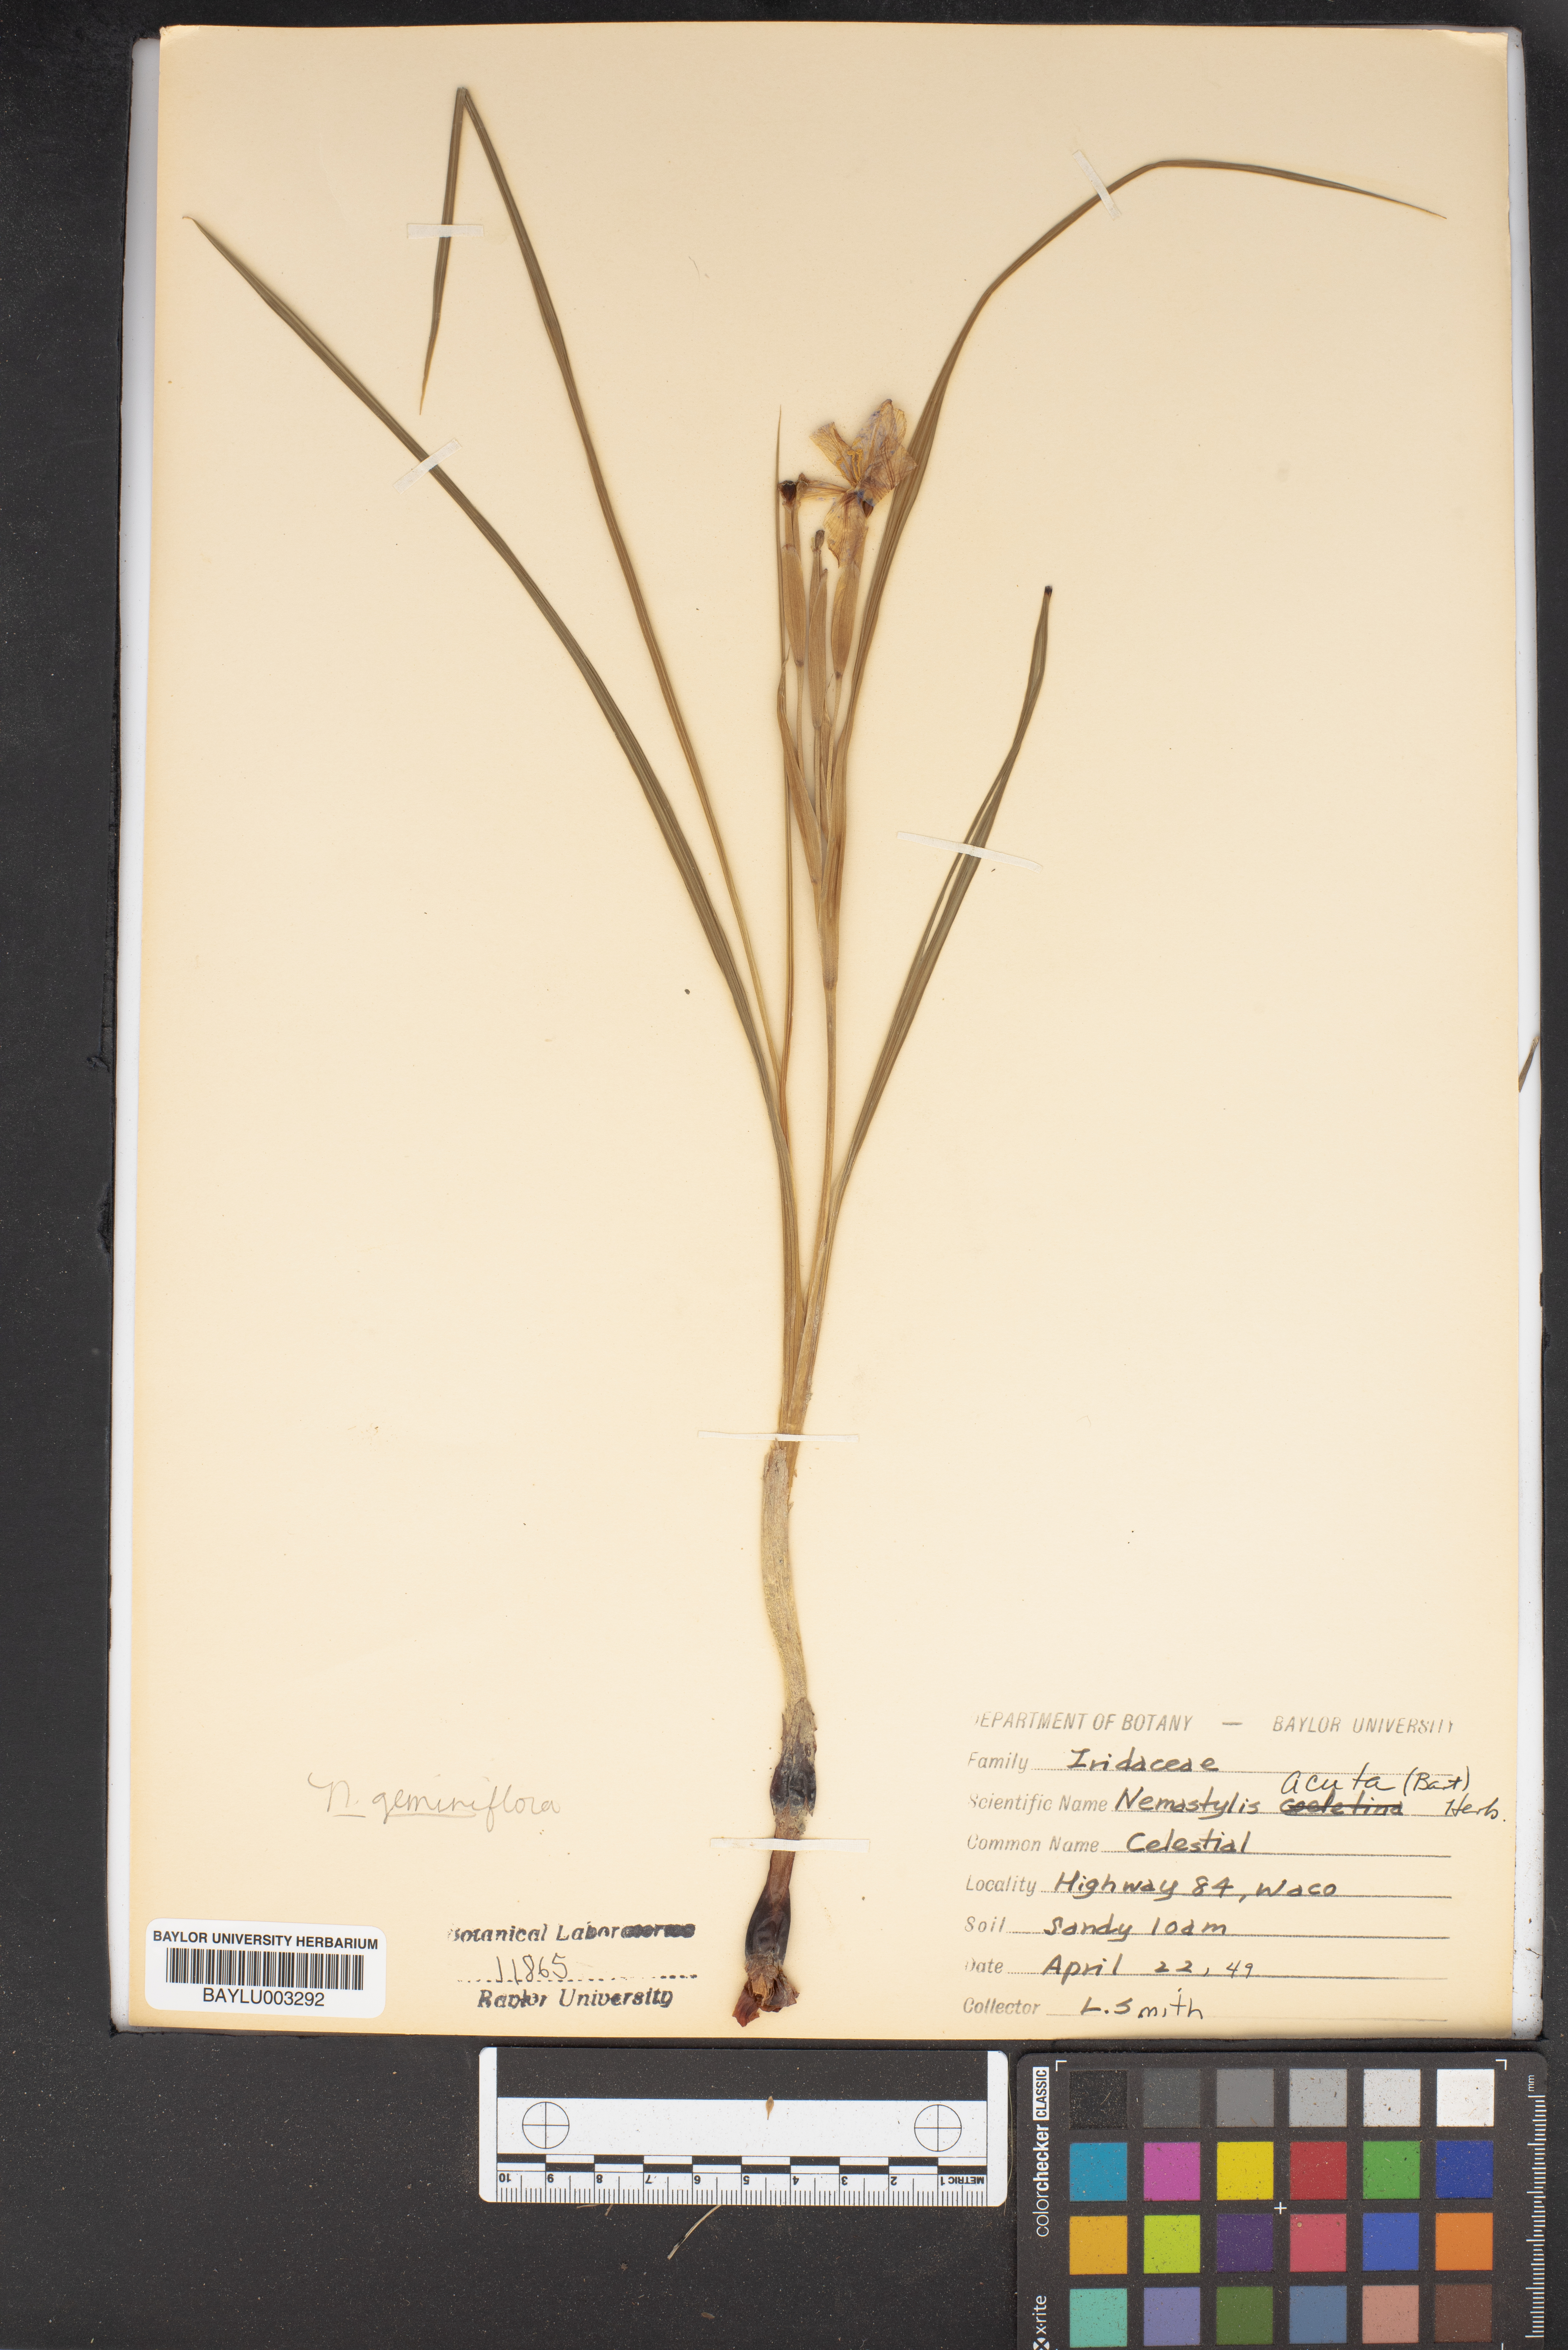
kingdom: Plantae
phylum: Tracheophyta
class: Liliopsida
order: Asparagales
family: Iridaceae
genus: Nemastylis
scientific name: Nemastylis geminiflora
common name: Prairie celestial
